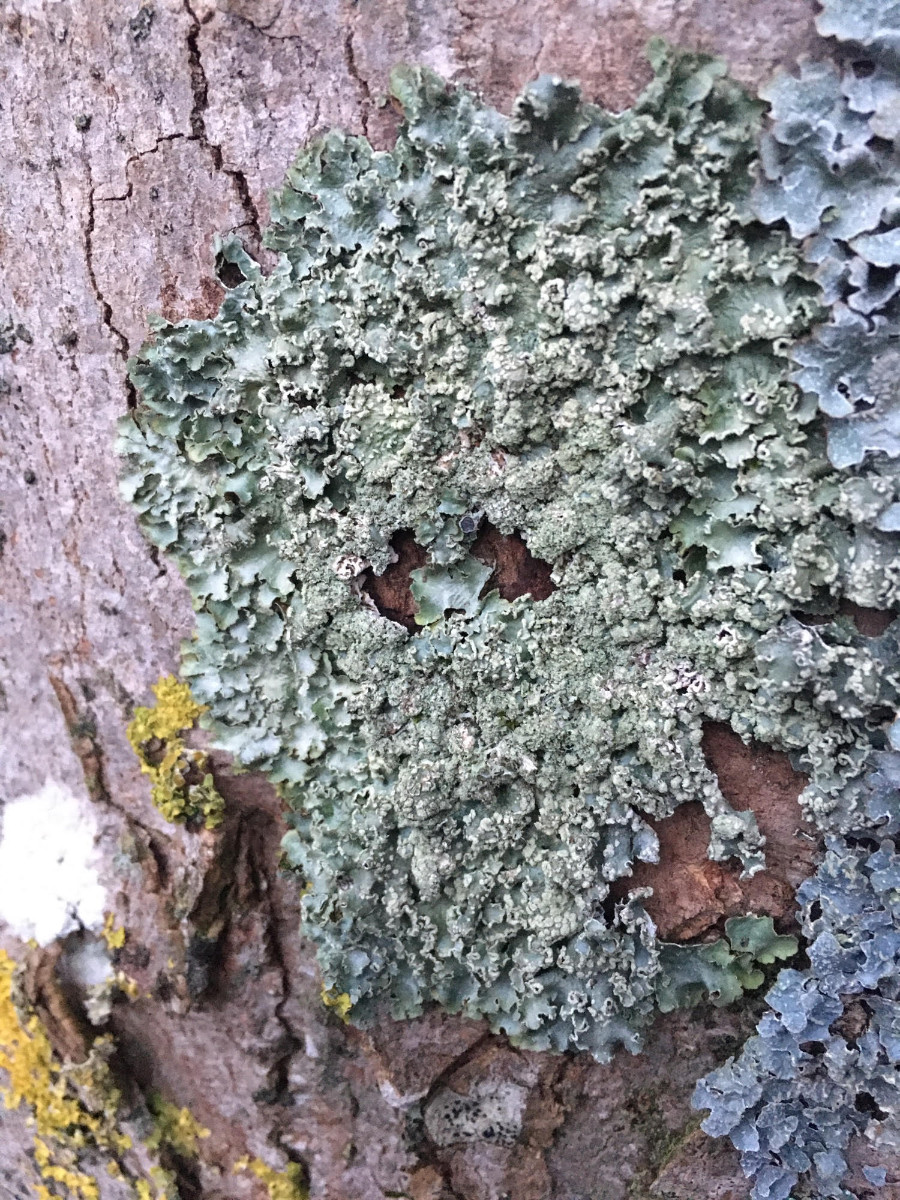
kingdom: Fungi
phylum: Ascomycota
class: Lecanoromycetes
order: Lecanorales
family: Parmeliaceae
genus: Punctelia
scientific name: Punctelia jeckeri
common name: randstøvet skållav
